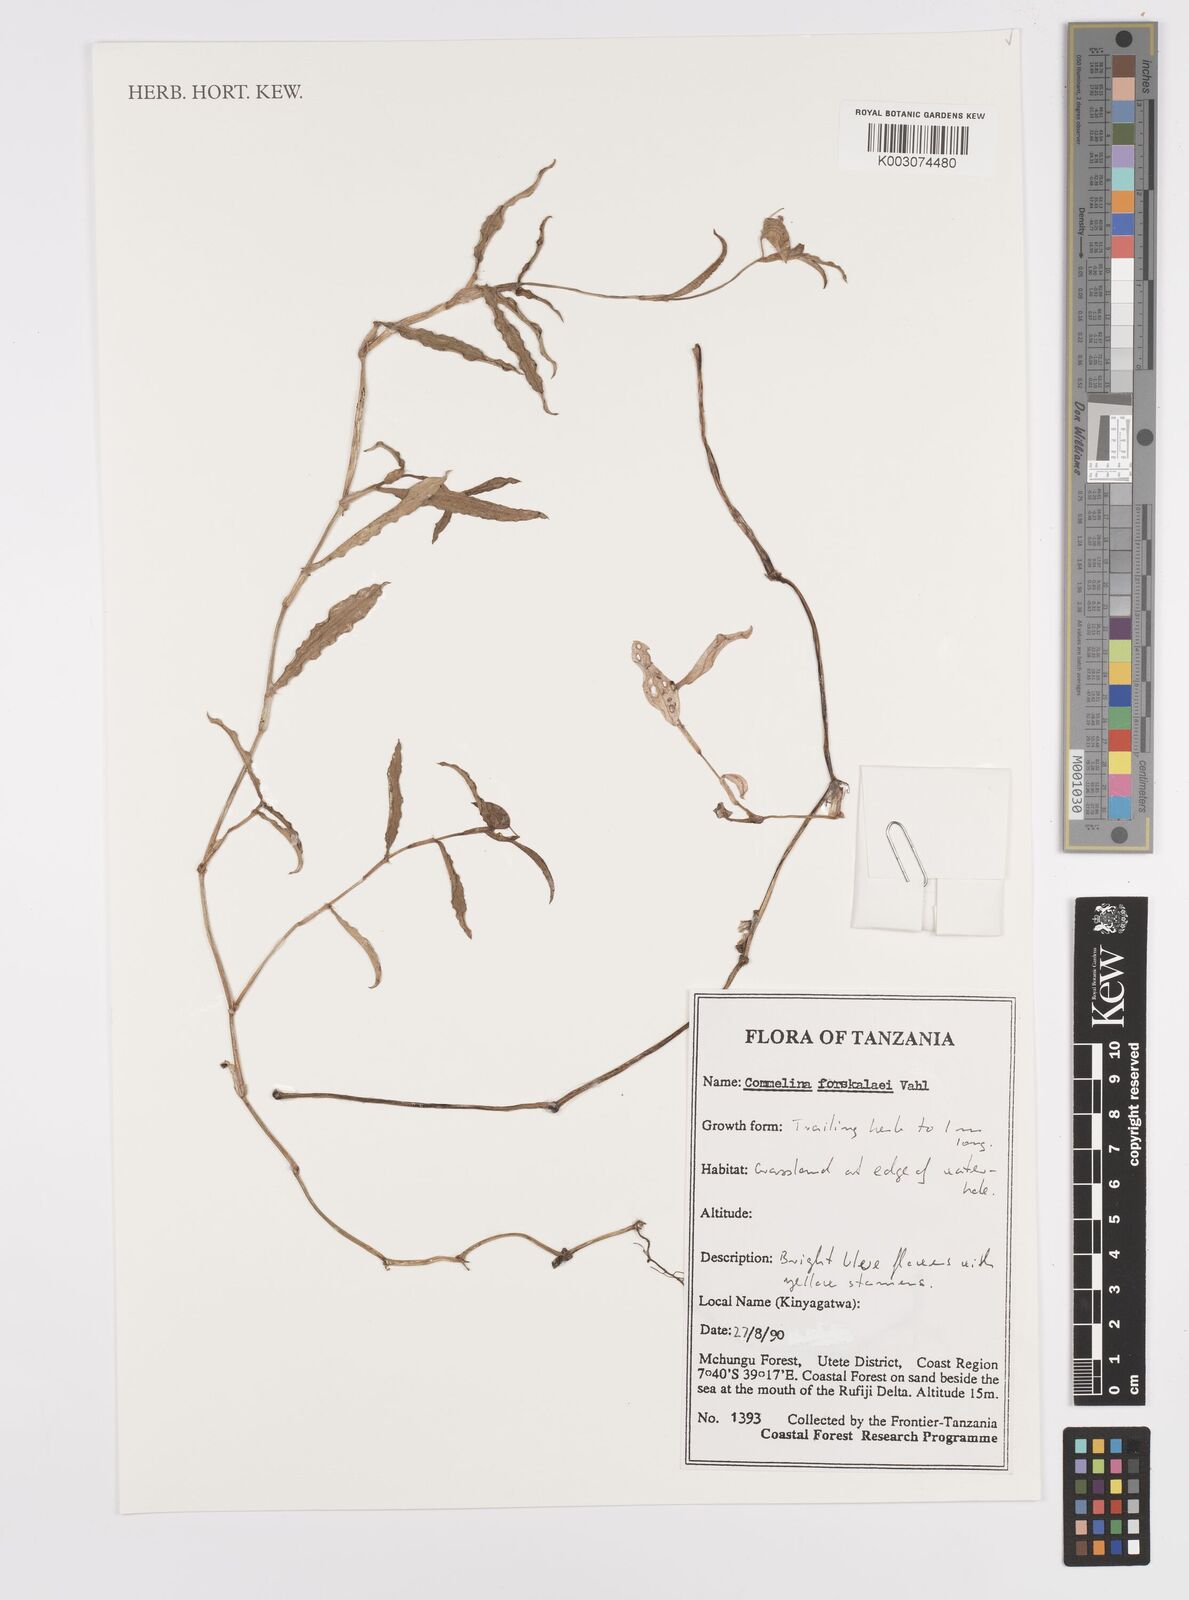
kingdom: Plantae
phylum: Tracheophyta
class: Liliopsida
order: Commelinales
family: Commelinaceae
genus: Commelina
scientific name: Commelina
